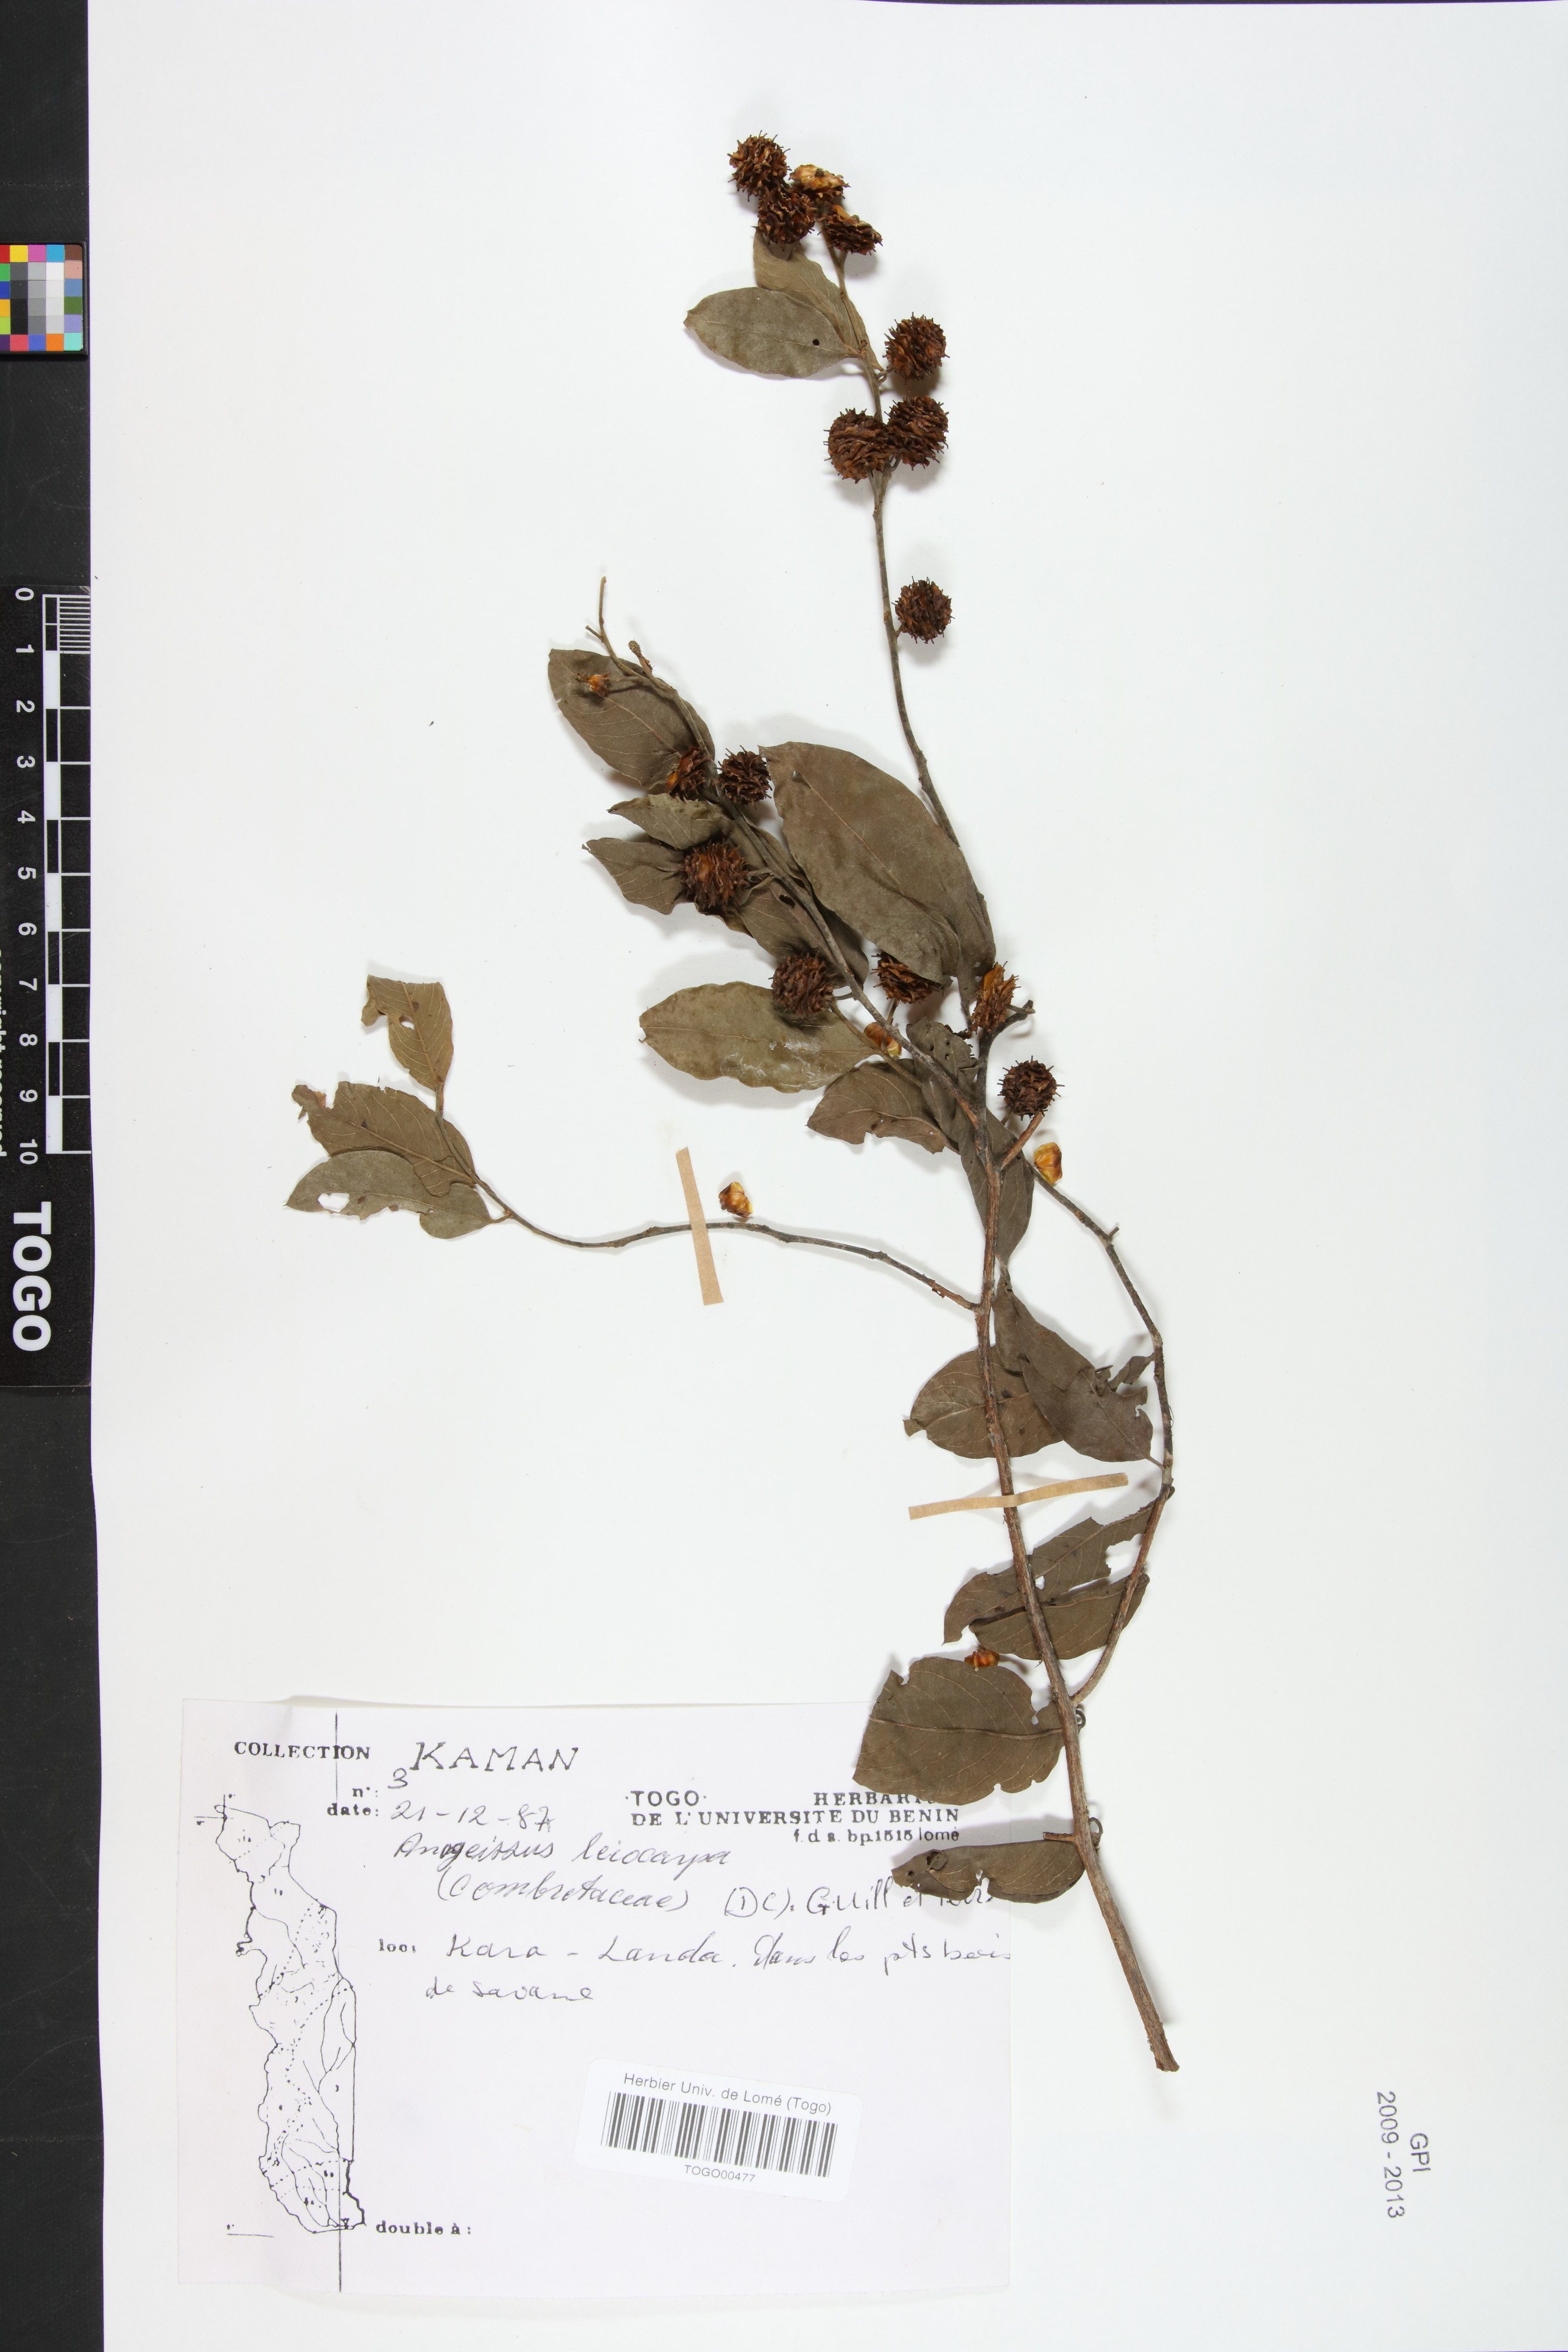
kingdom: Plantae
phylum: Tracheophyta
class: Magnoliopsida
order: Myrtales
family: Combretaceae
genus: Terminalia
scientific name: Terminalia leiocarpa
